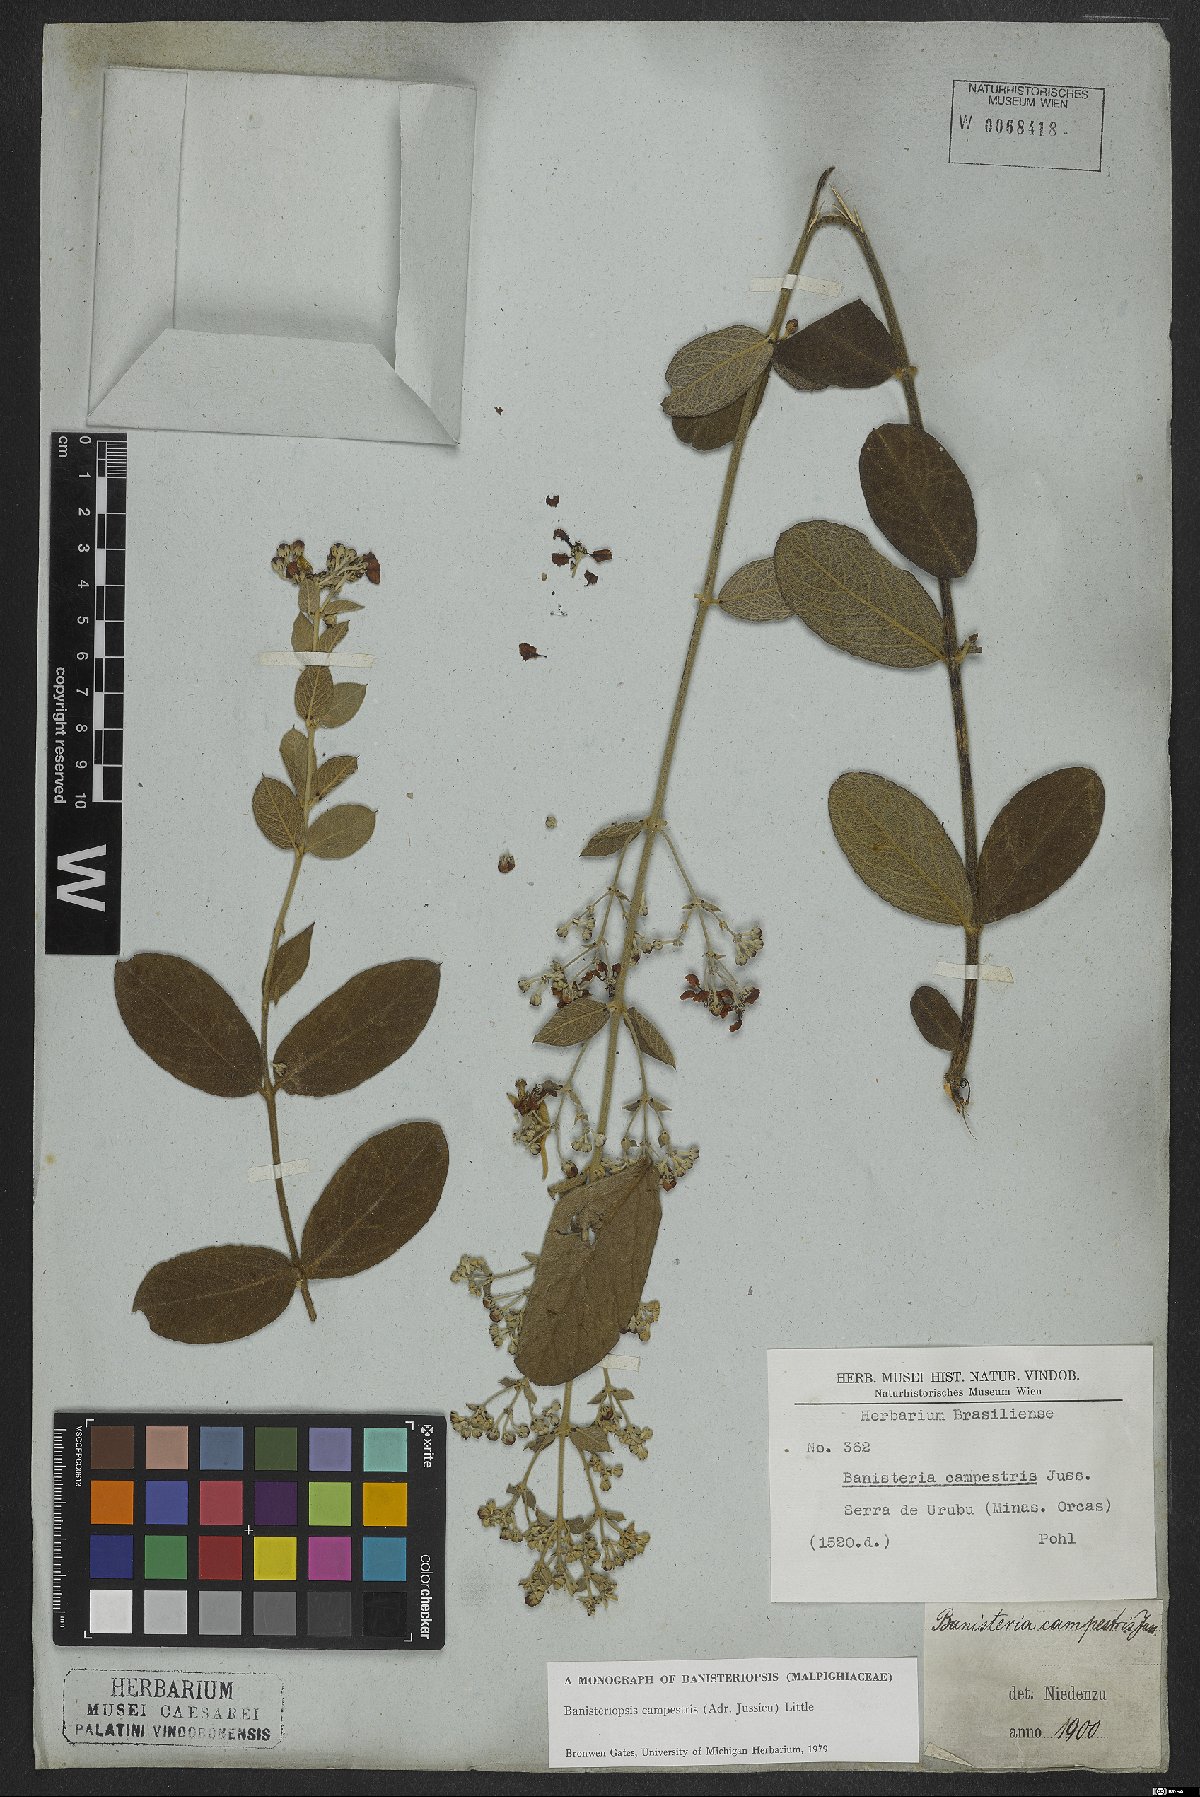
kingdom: Plantae
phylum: Tracheophyta
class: Magnoliopsida
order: Malpighiales
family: Malpighiaceae
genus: Banisteriopsis
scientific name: Banisteriopsis campestris
